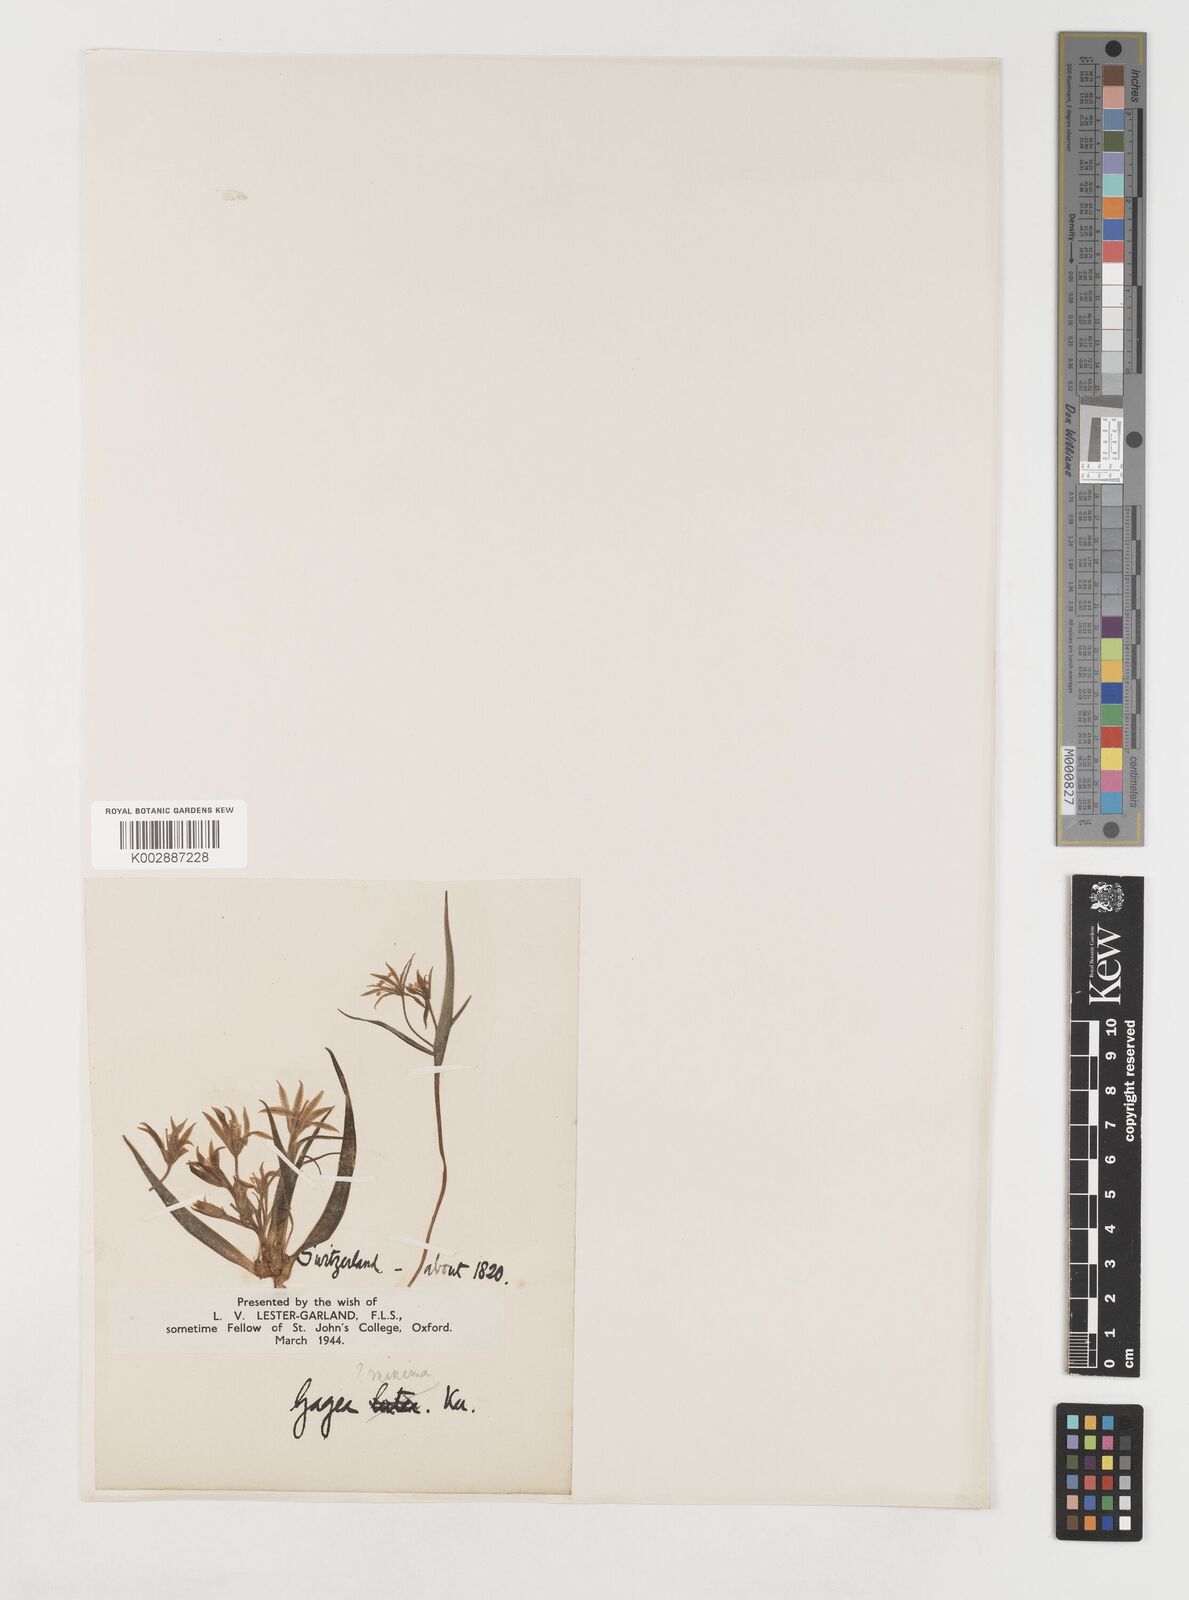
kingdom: Plantae
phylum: Tracheophyta
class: Liliopsida
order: Liliales
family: Liliaceae
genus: Gagea
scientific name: Gagea minima
